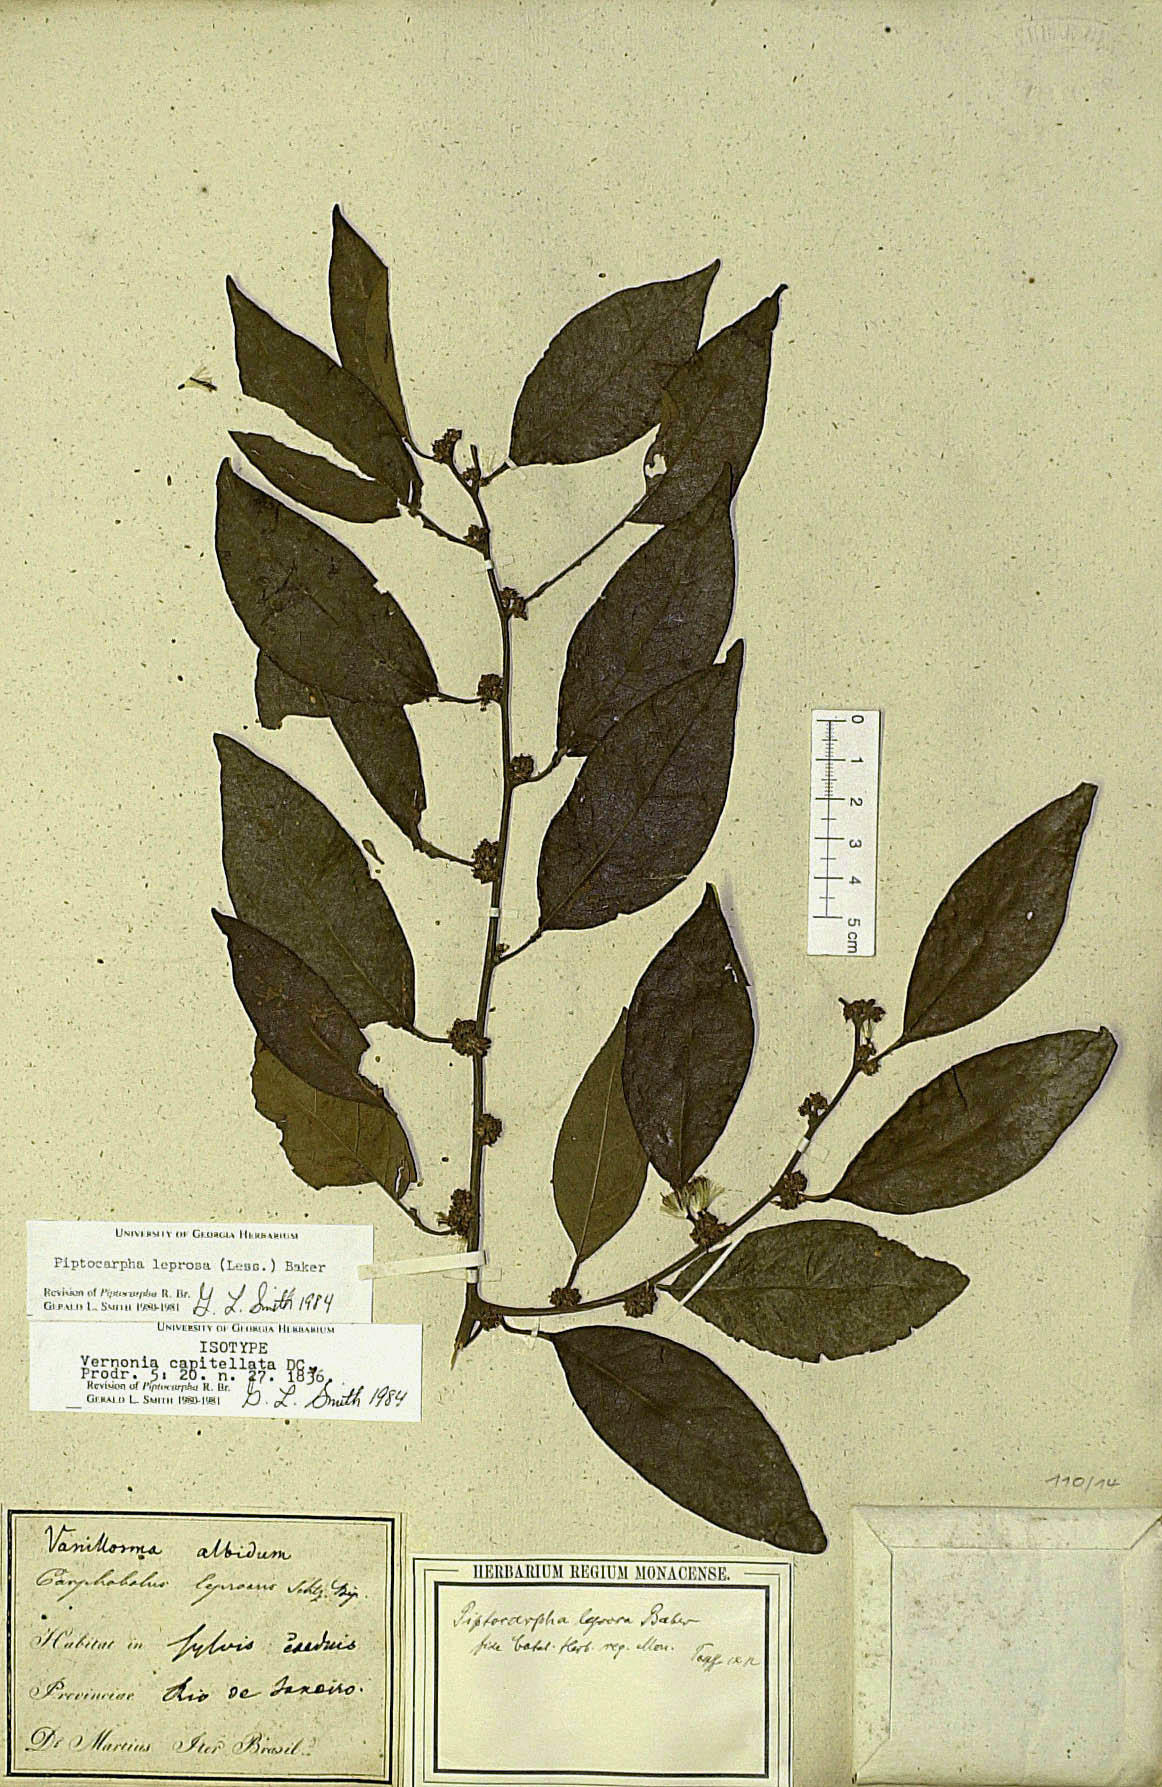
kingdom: Plantae
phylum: Tracheophyta
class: Magnoliopsida
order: Asterales
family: Asteraceae
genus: Piptocarpha
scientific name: Piptocarpha leprosa
